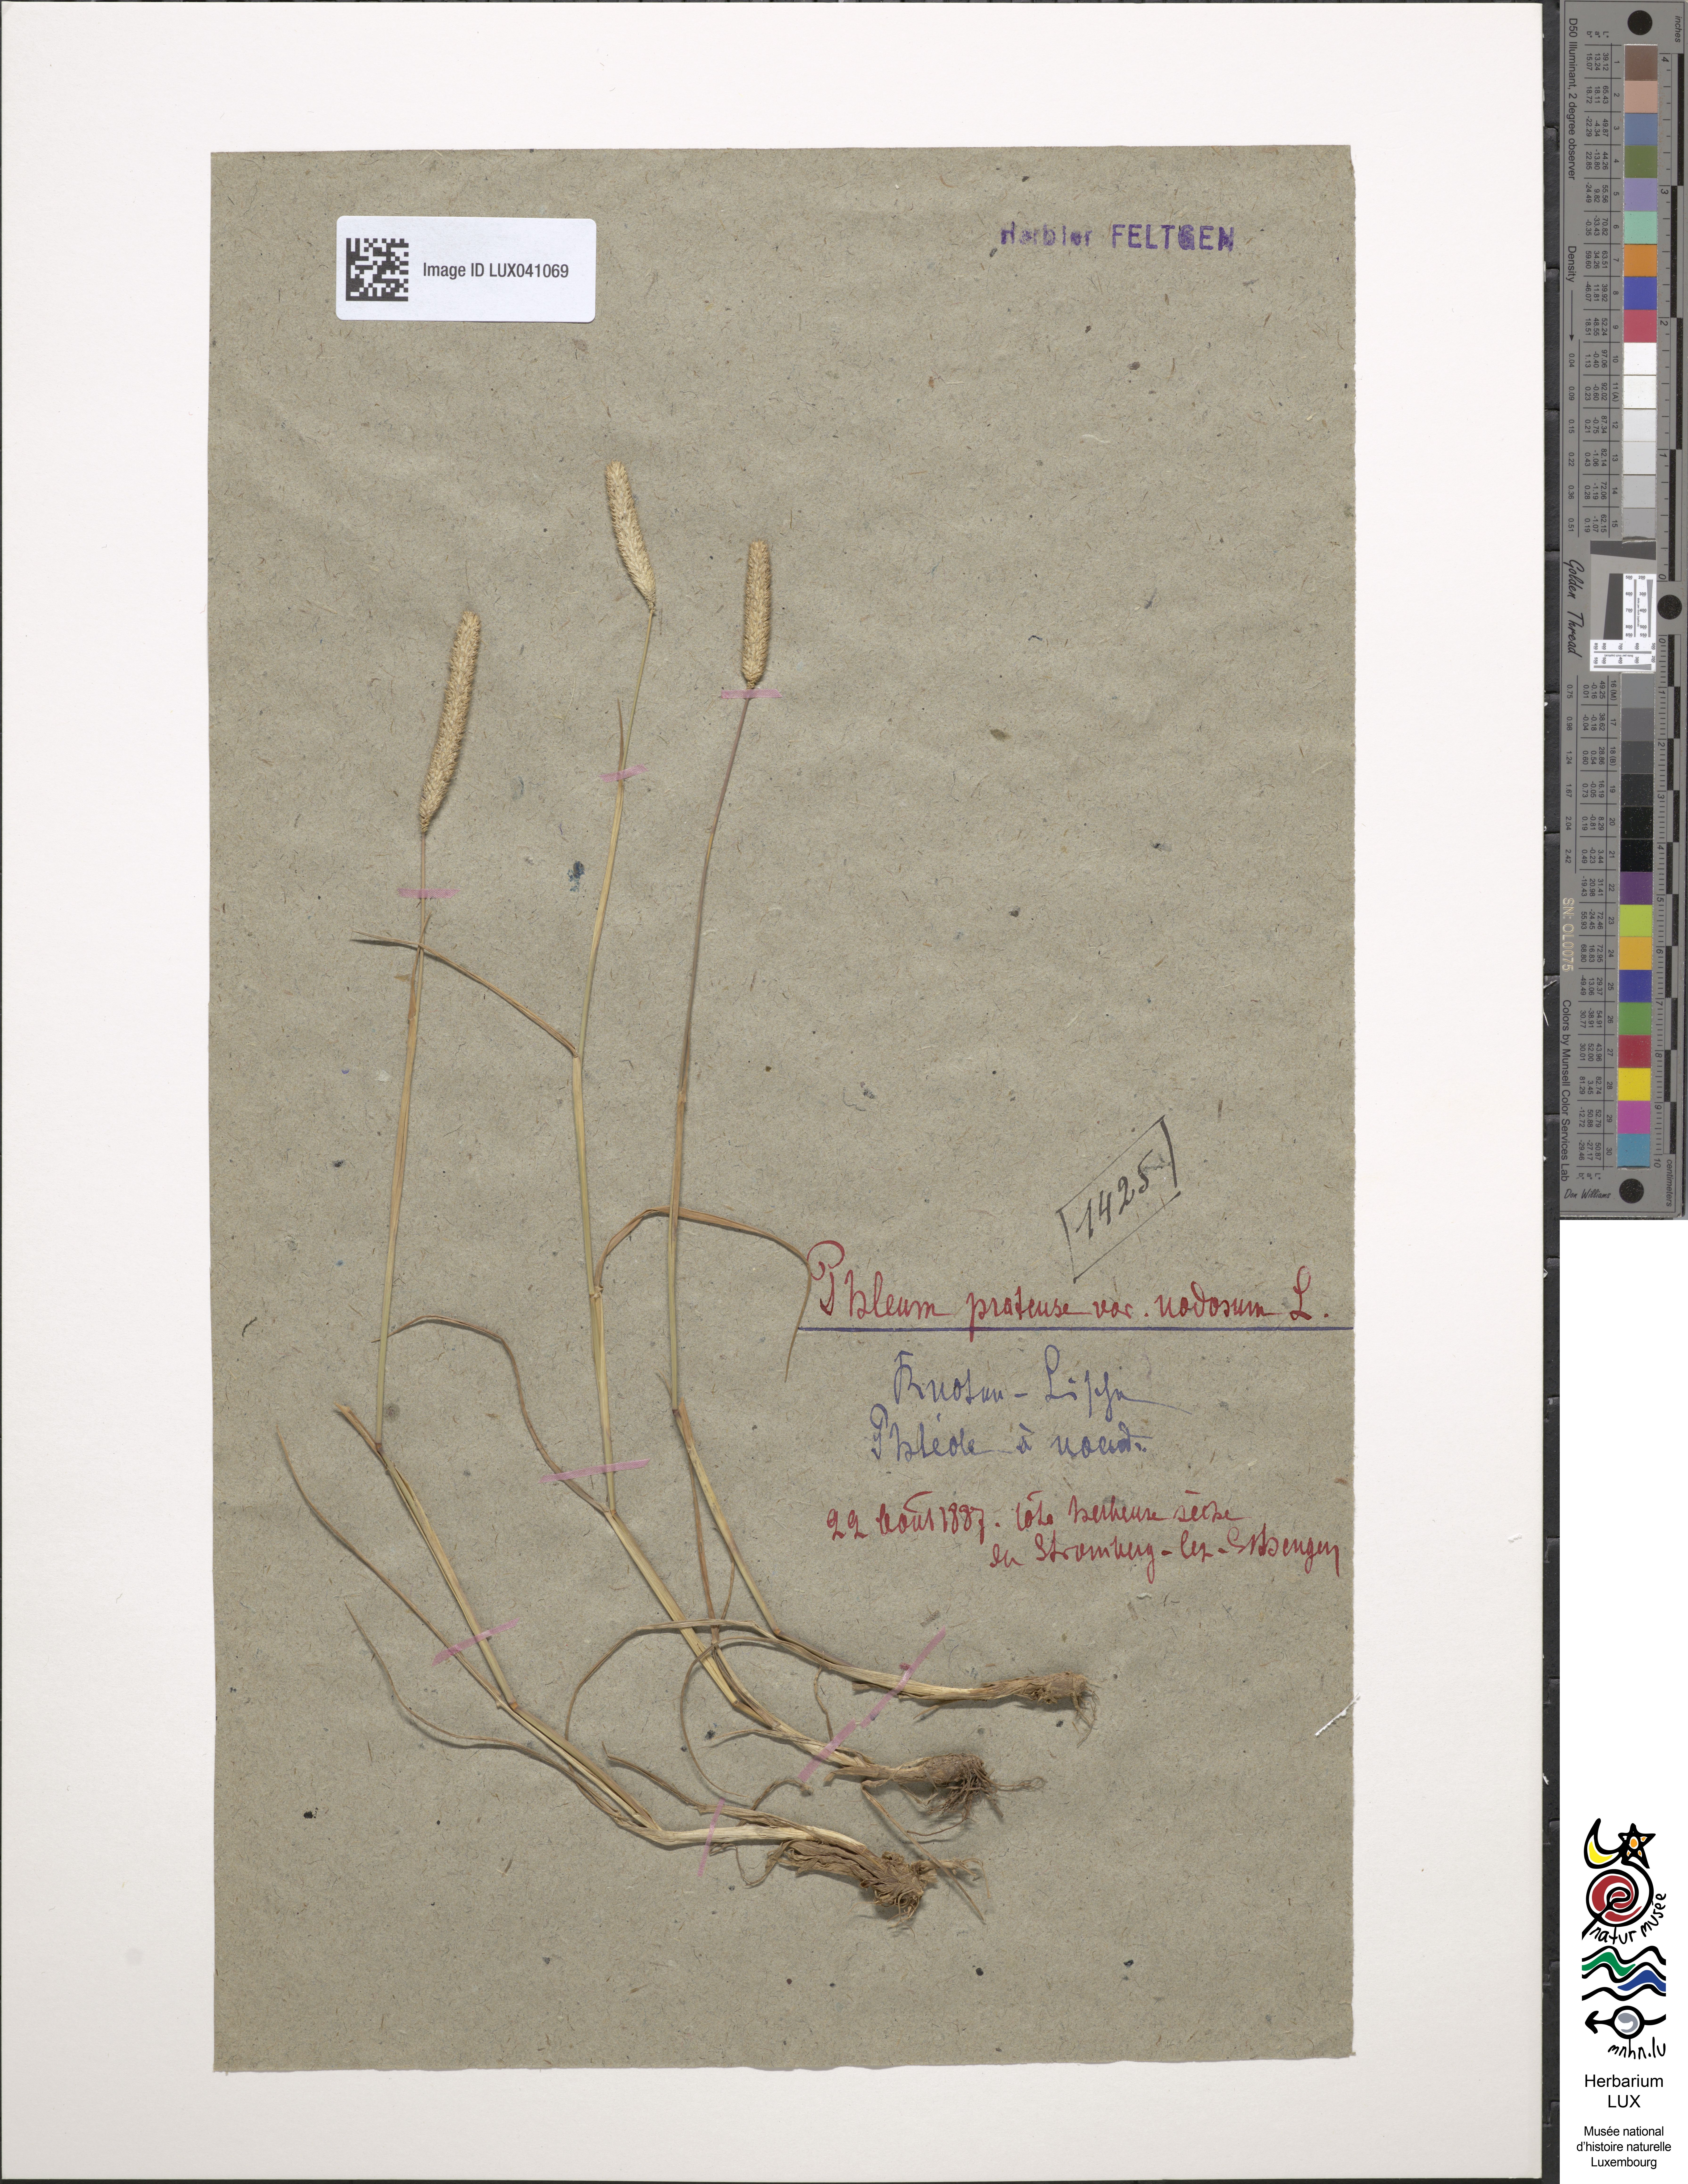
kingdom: Plantae
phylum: Tracheophyta
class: Liliopsida
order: Poales
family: Poaceae
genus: Phleum
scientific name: Phleum pratense
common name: Timothy grass
